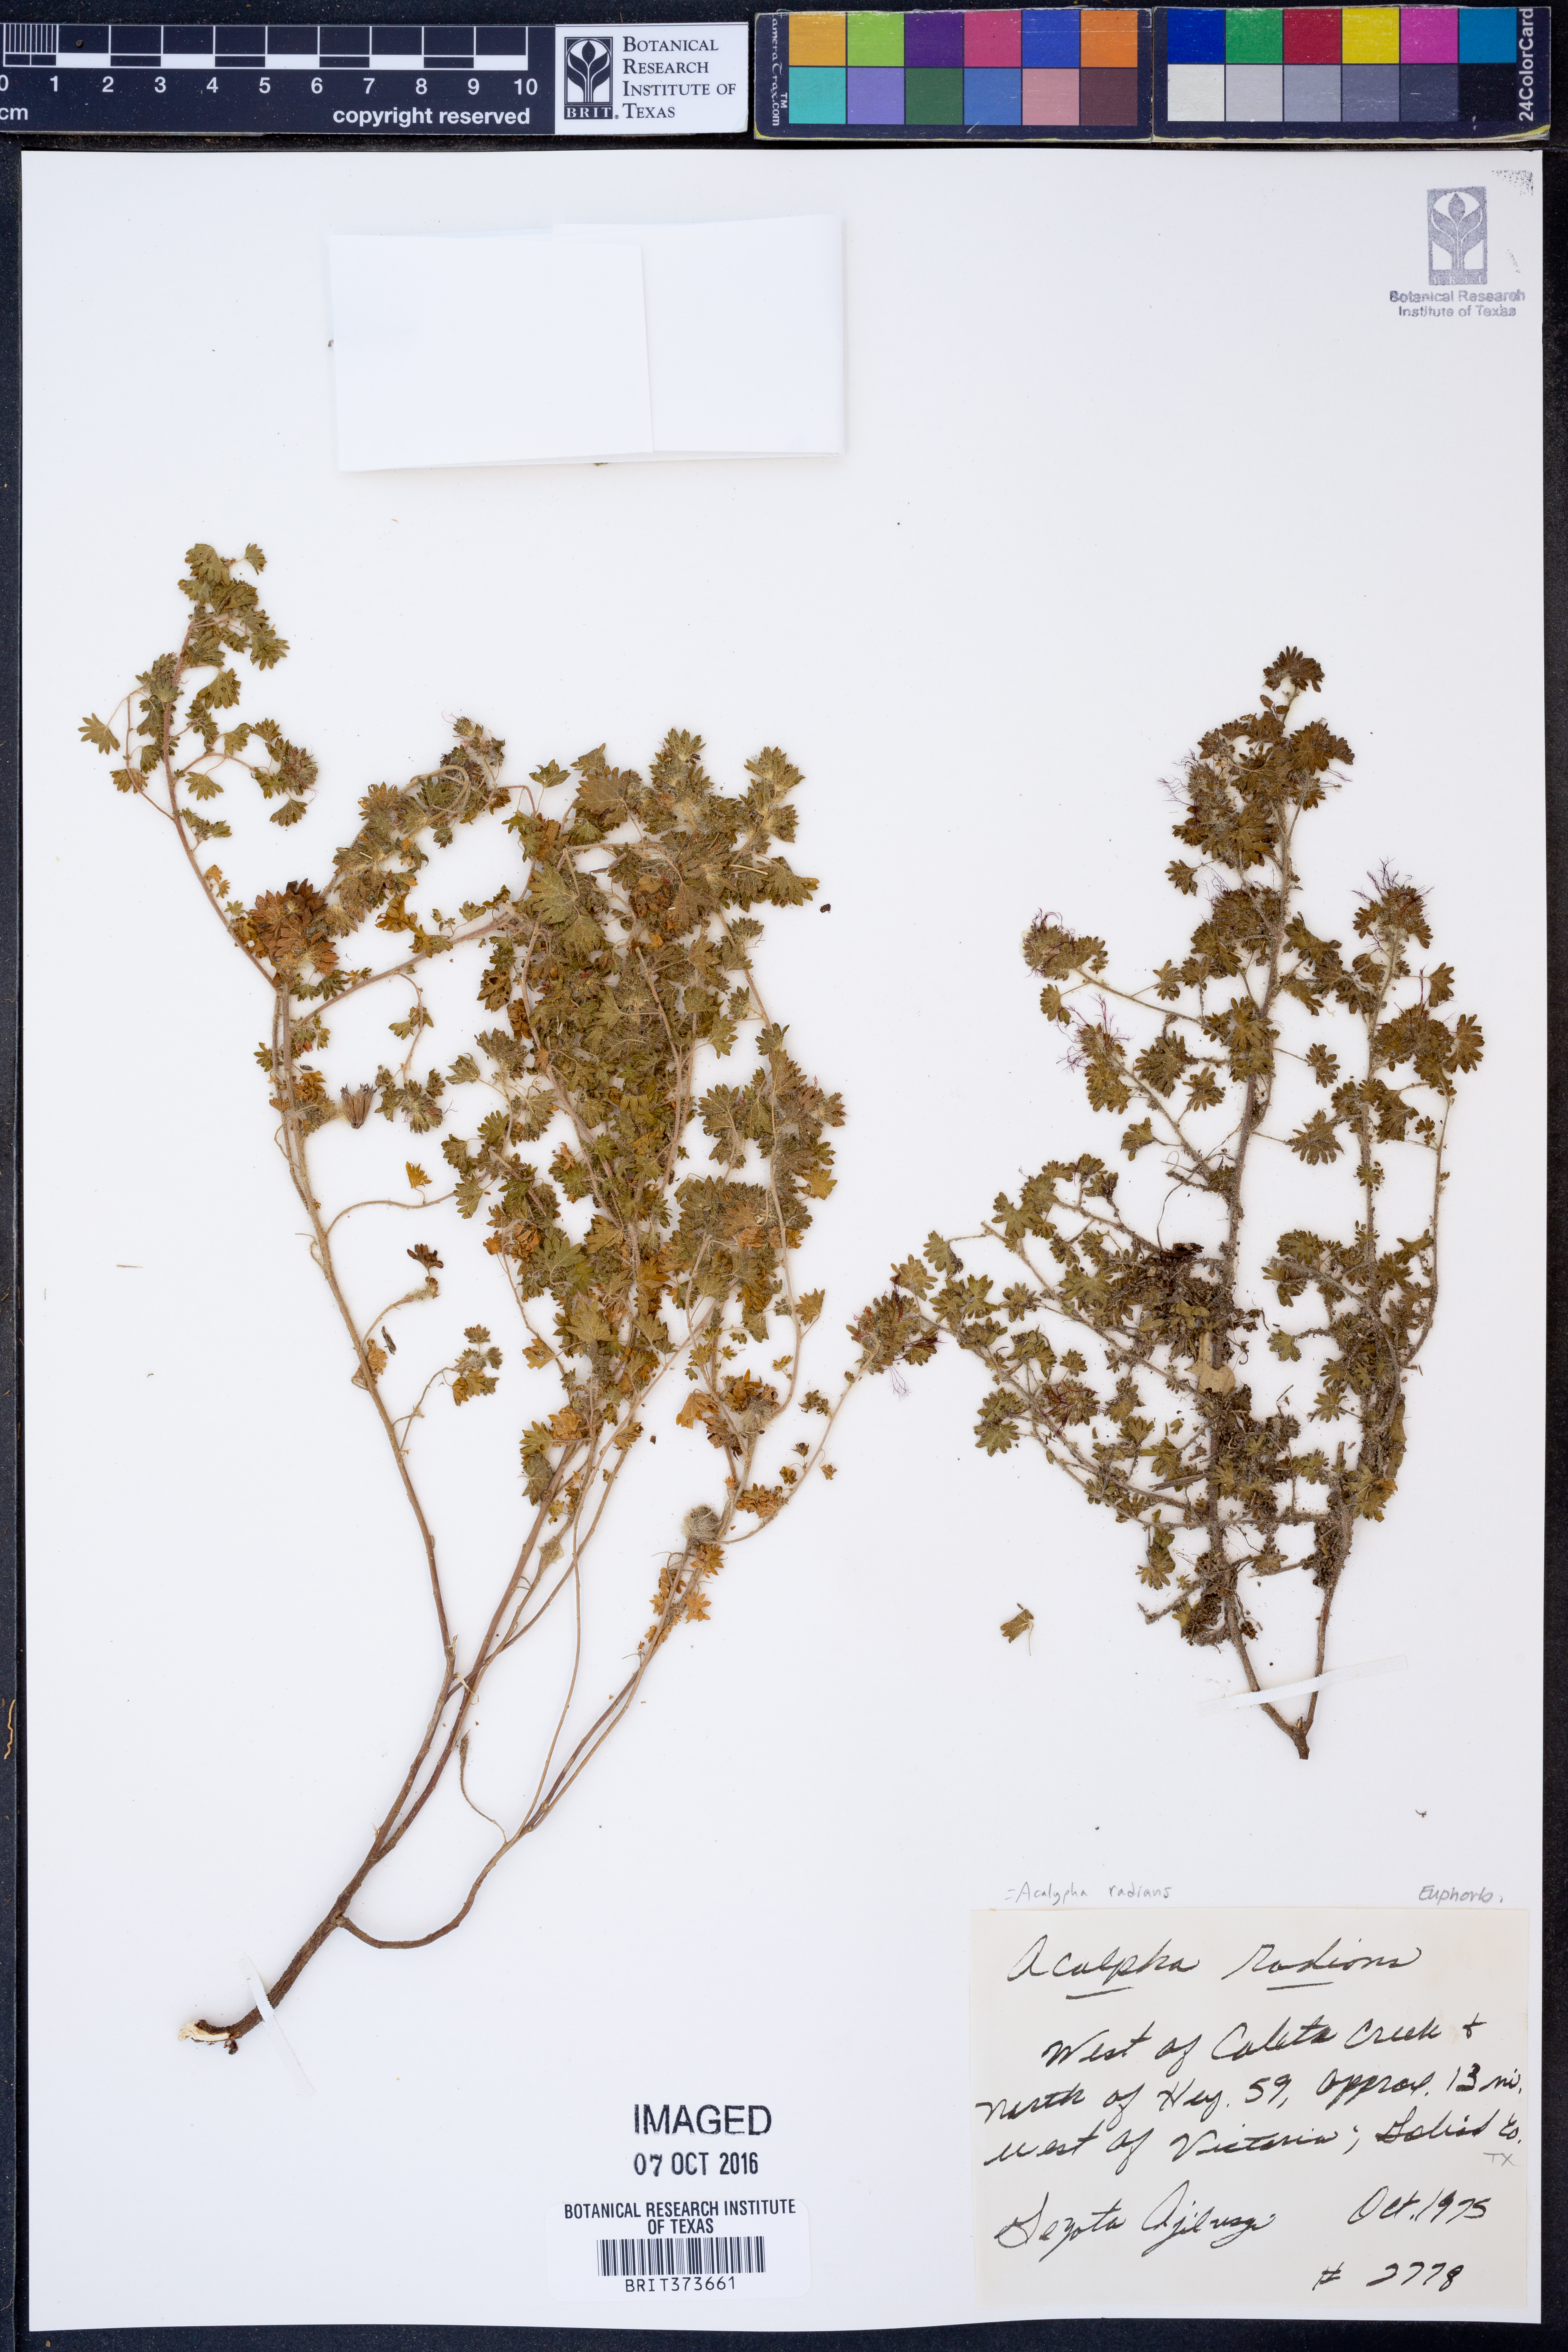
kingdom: Plantae
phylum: Tracheophyta
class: Magnoliopsida
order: Malpighiales
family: Euphorbiaceae
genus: Acalypha
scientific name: Acalypha radians
